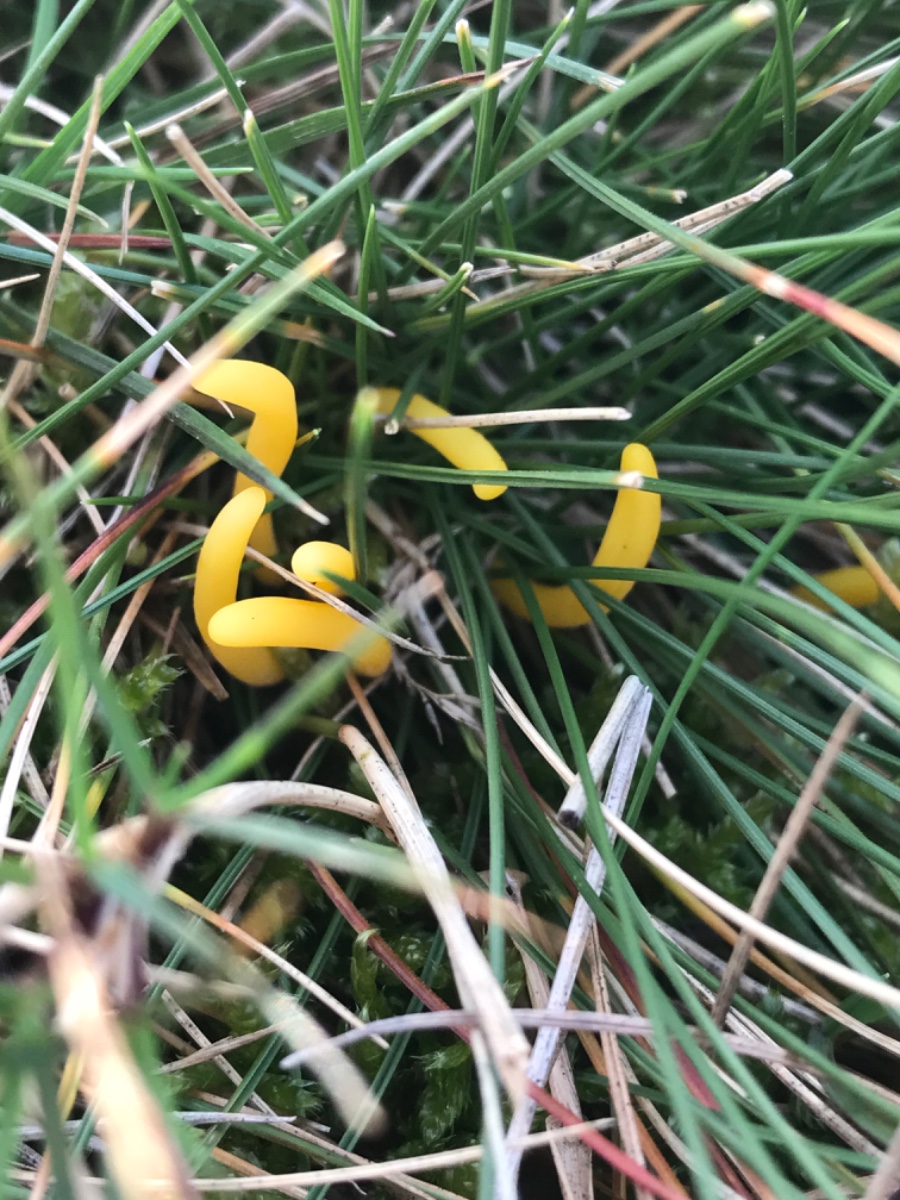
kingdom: Fungi
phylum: Basidiomycota
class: Agaricomycetes
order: Agaricales
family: Clavariaceae
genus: Clavulinopsis
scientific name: Clavulinopsis
